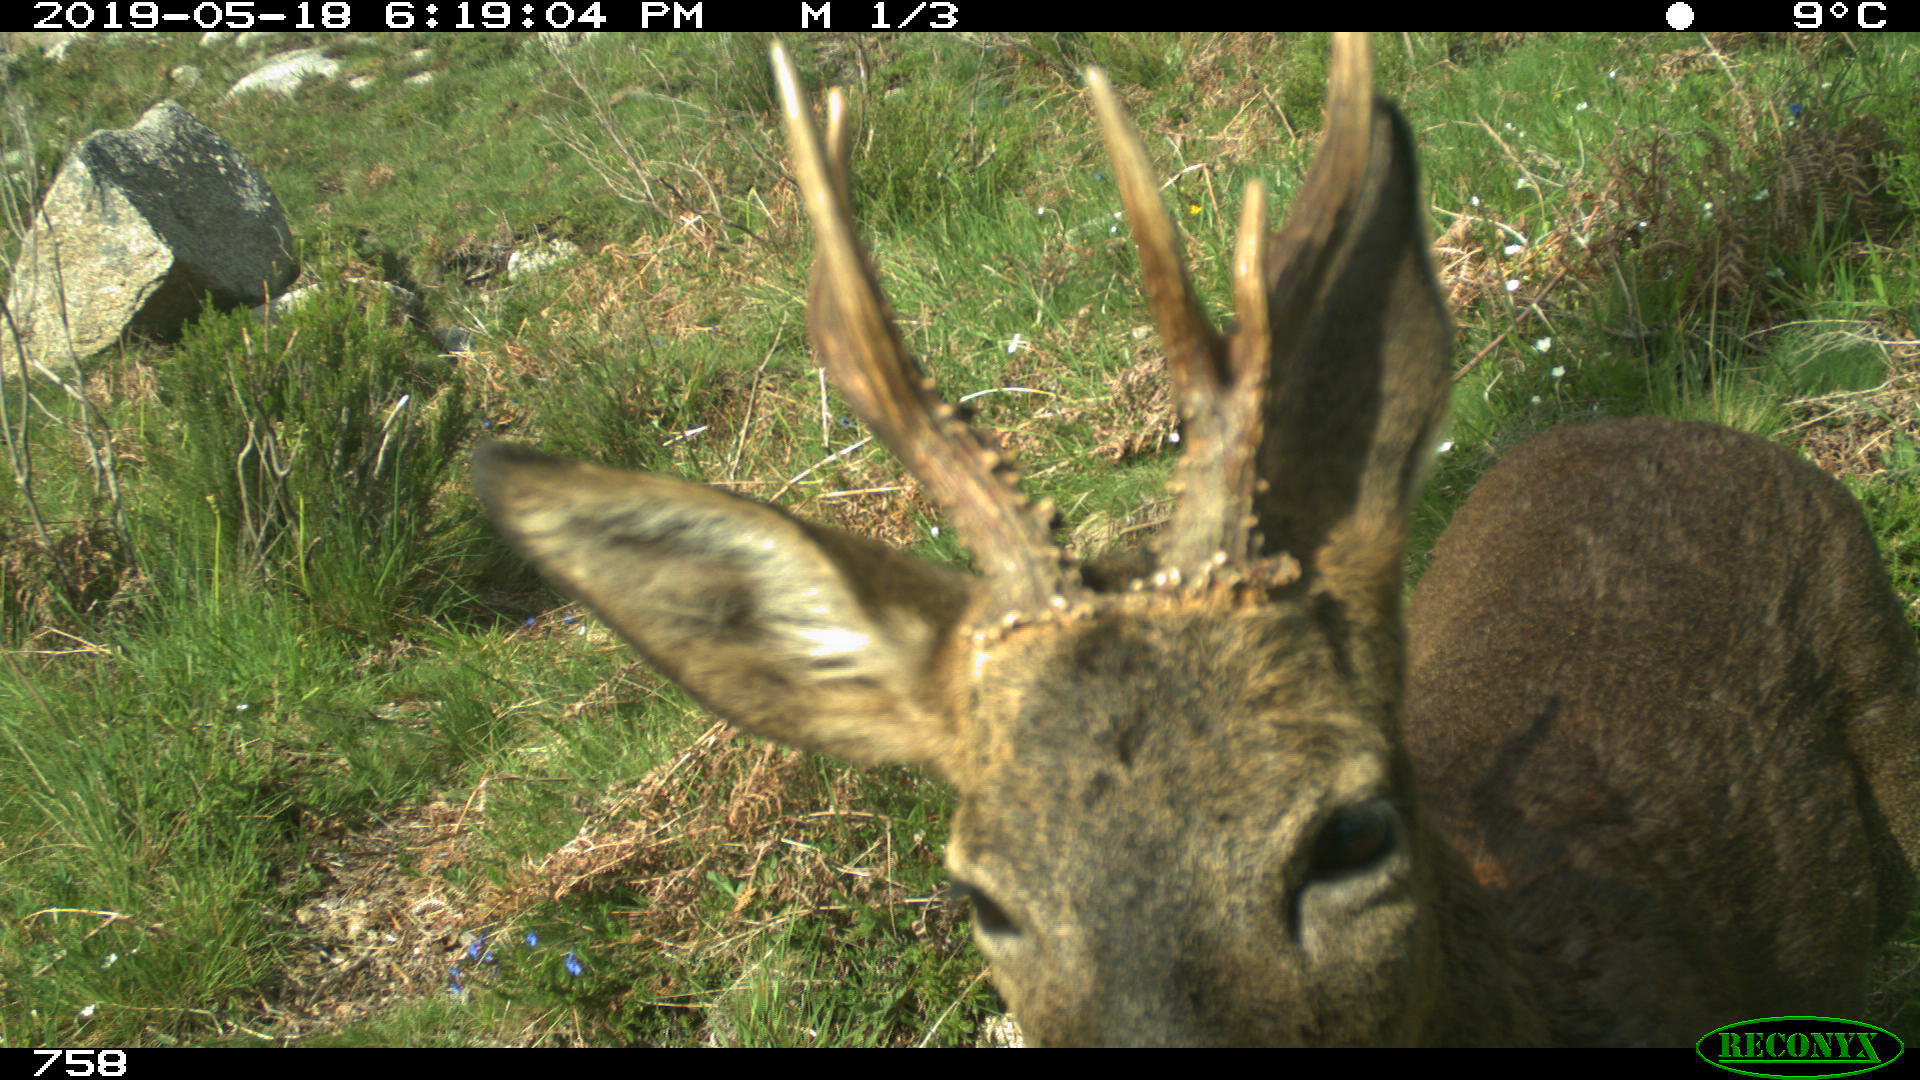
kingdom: Animalia
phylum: Chordata
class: Mammalia
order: Artiodactyla
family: Cervidae
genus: Capreolus
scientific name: Capreolus capreolus
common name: Western roe deer
